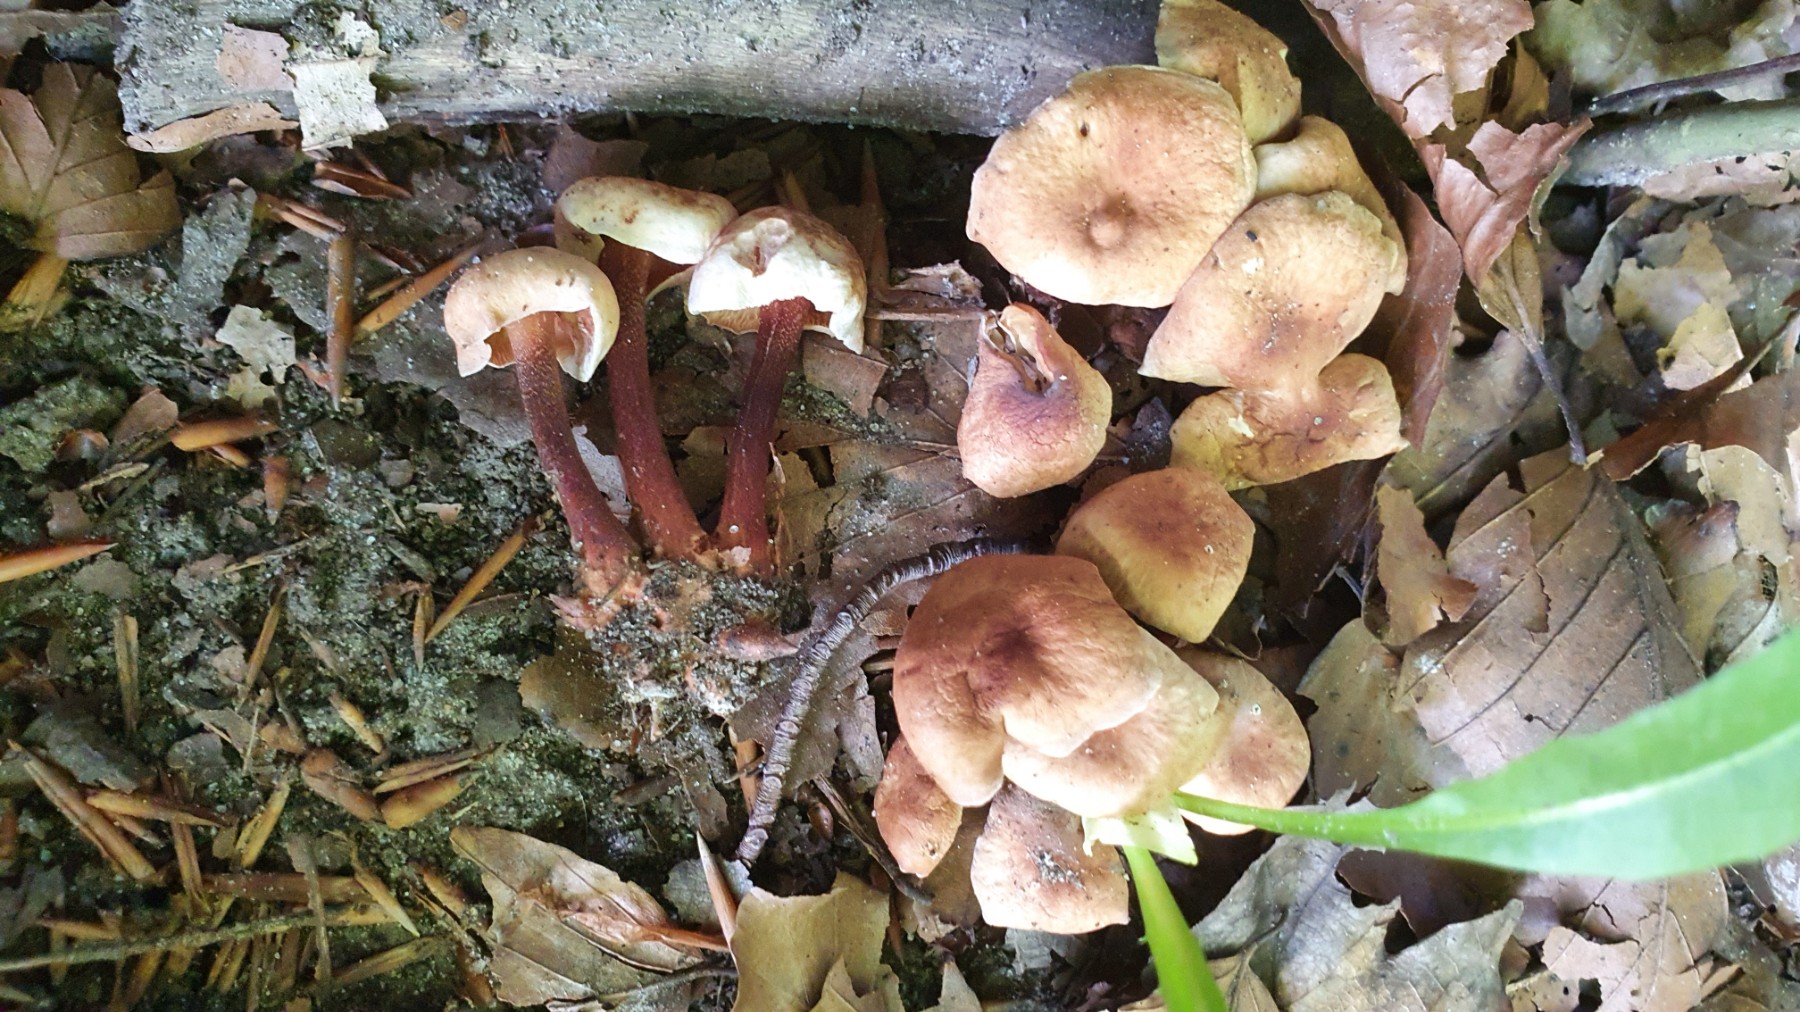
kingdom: Fungi
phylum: Basidiomycota
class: Agaricomycetes
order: Agaricales
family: Omphalotaceae
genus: Gymnopus
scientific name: Gymnopus erythropus
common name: rødstokket fladhat
